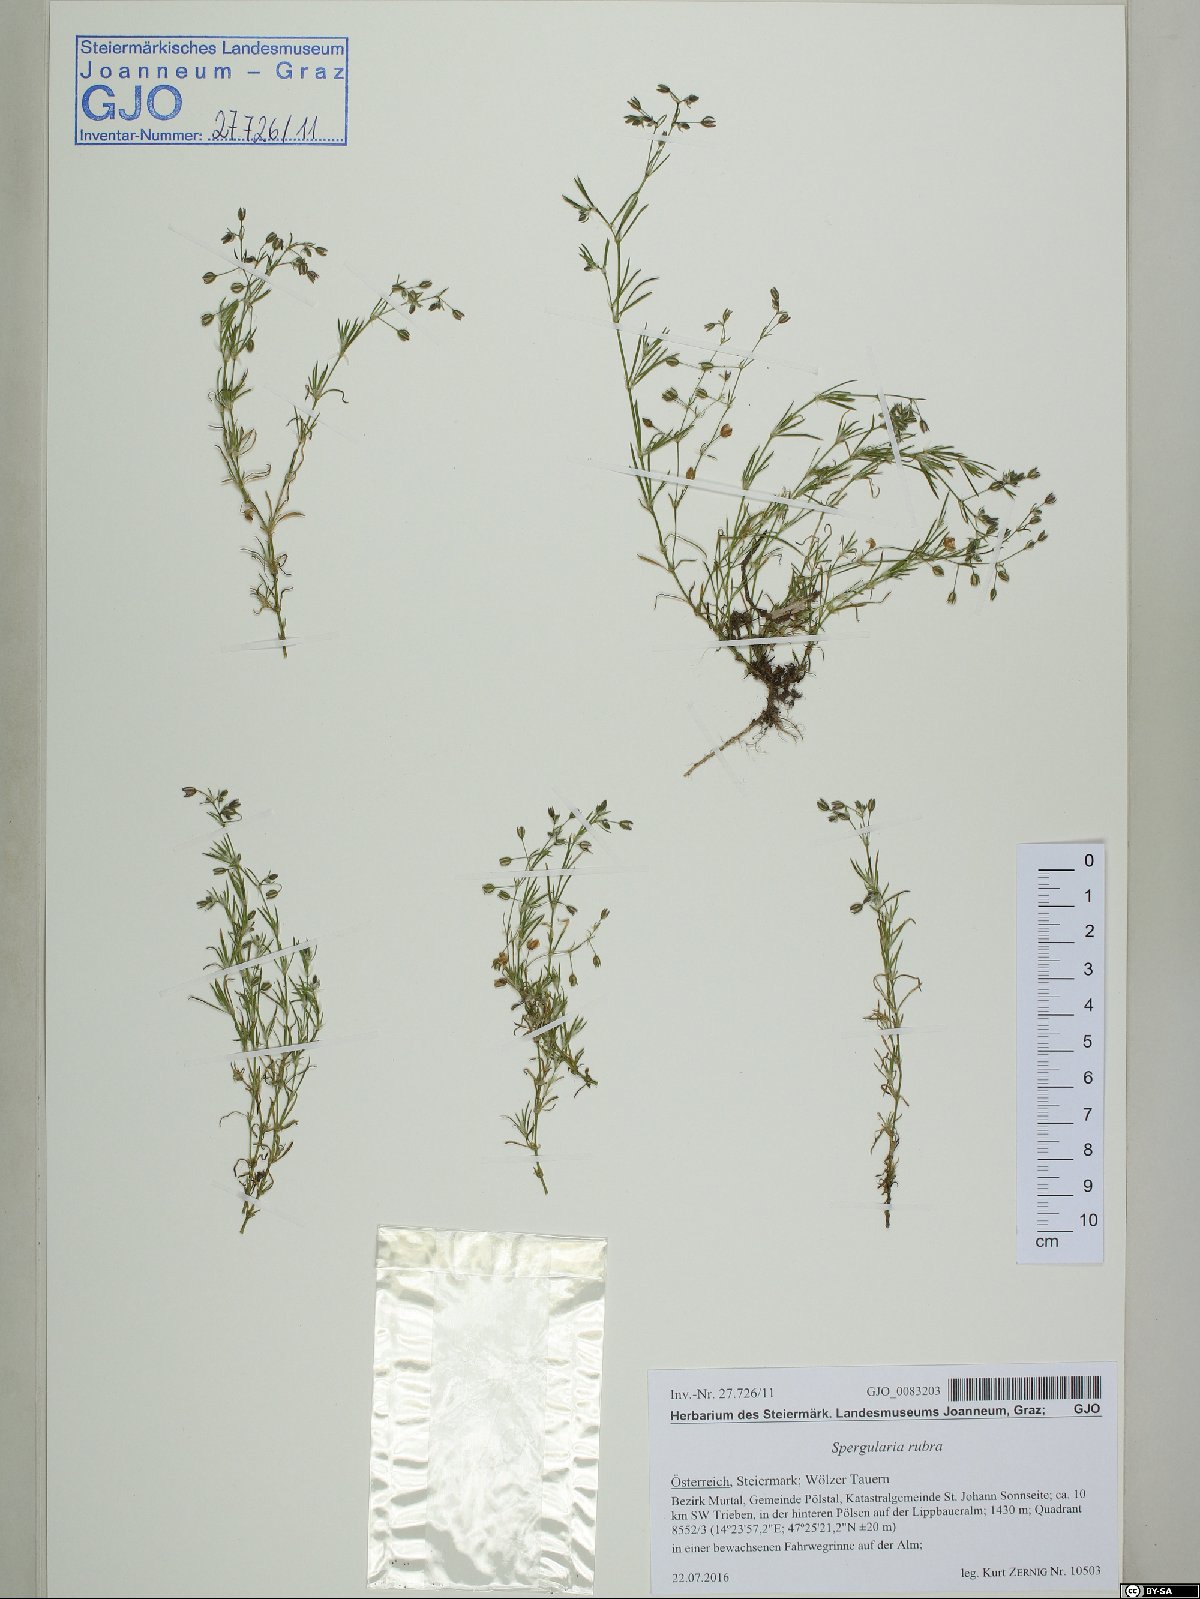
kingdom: Plantae
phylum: Tracheophyta
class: Magnoliopsida
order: Caryophyllales
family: Caryophyllaceae
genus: Spergularia
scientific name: Spergularia rubra
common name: Red sand-spurrey
